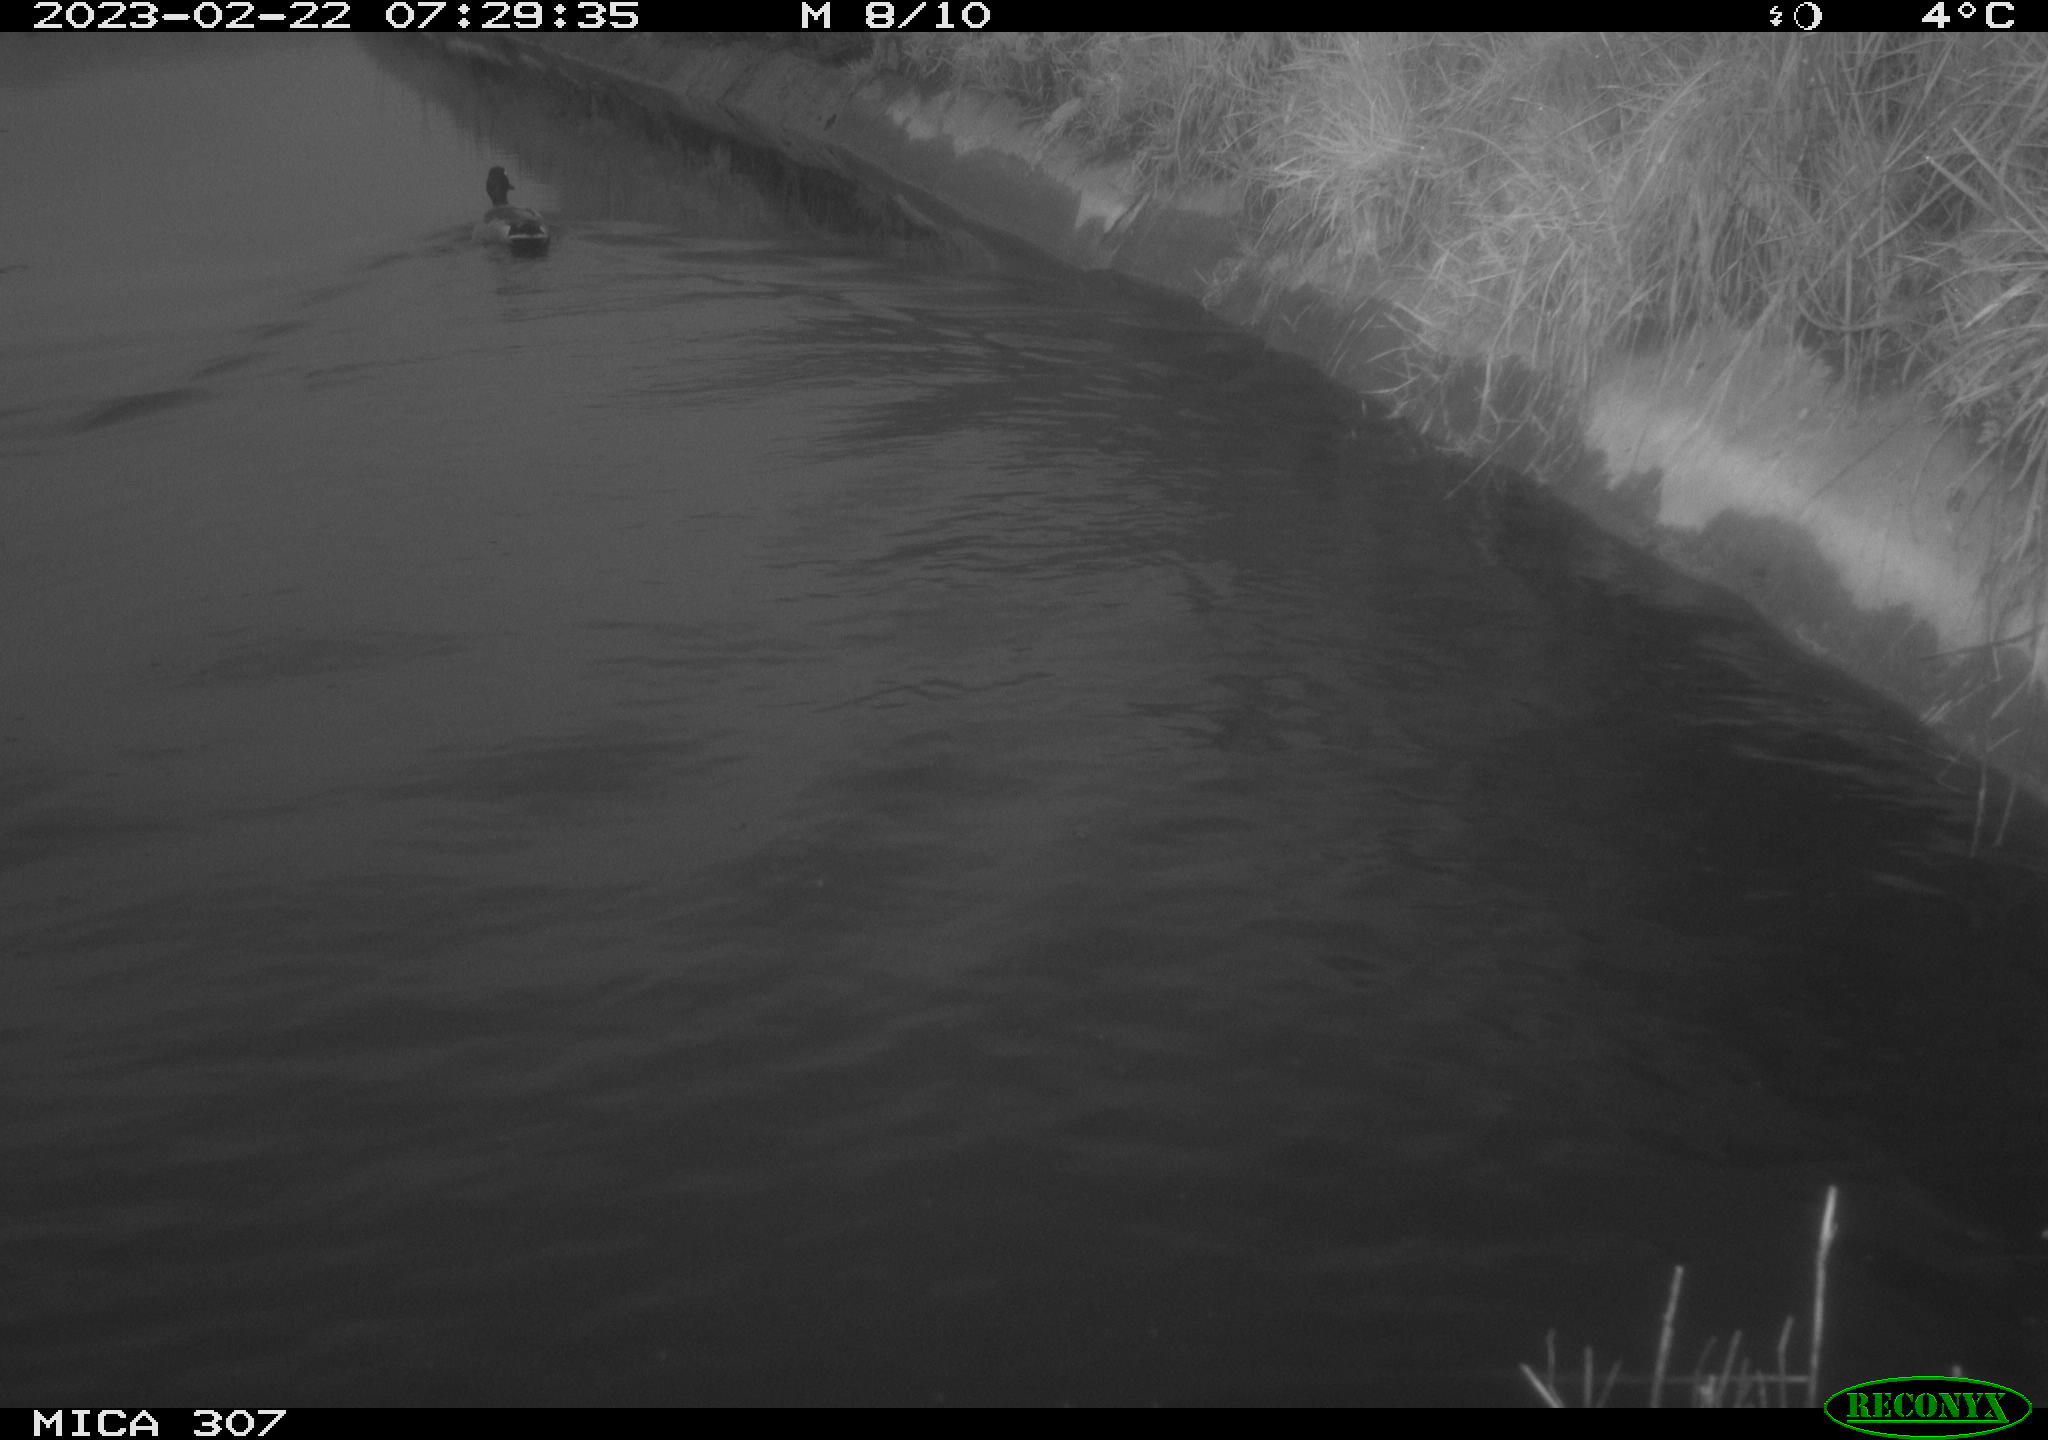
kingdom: Animalia
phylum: Chordata
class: Aves
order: Anseriformes
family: Anatidae
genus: Anas
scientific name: Anas
